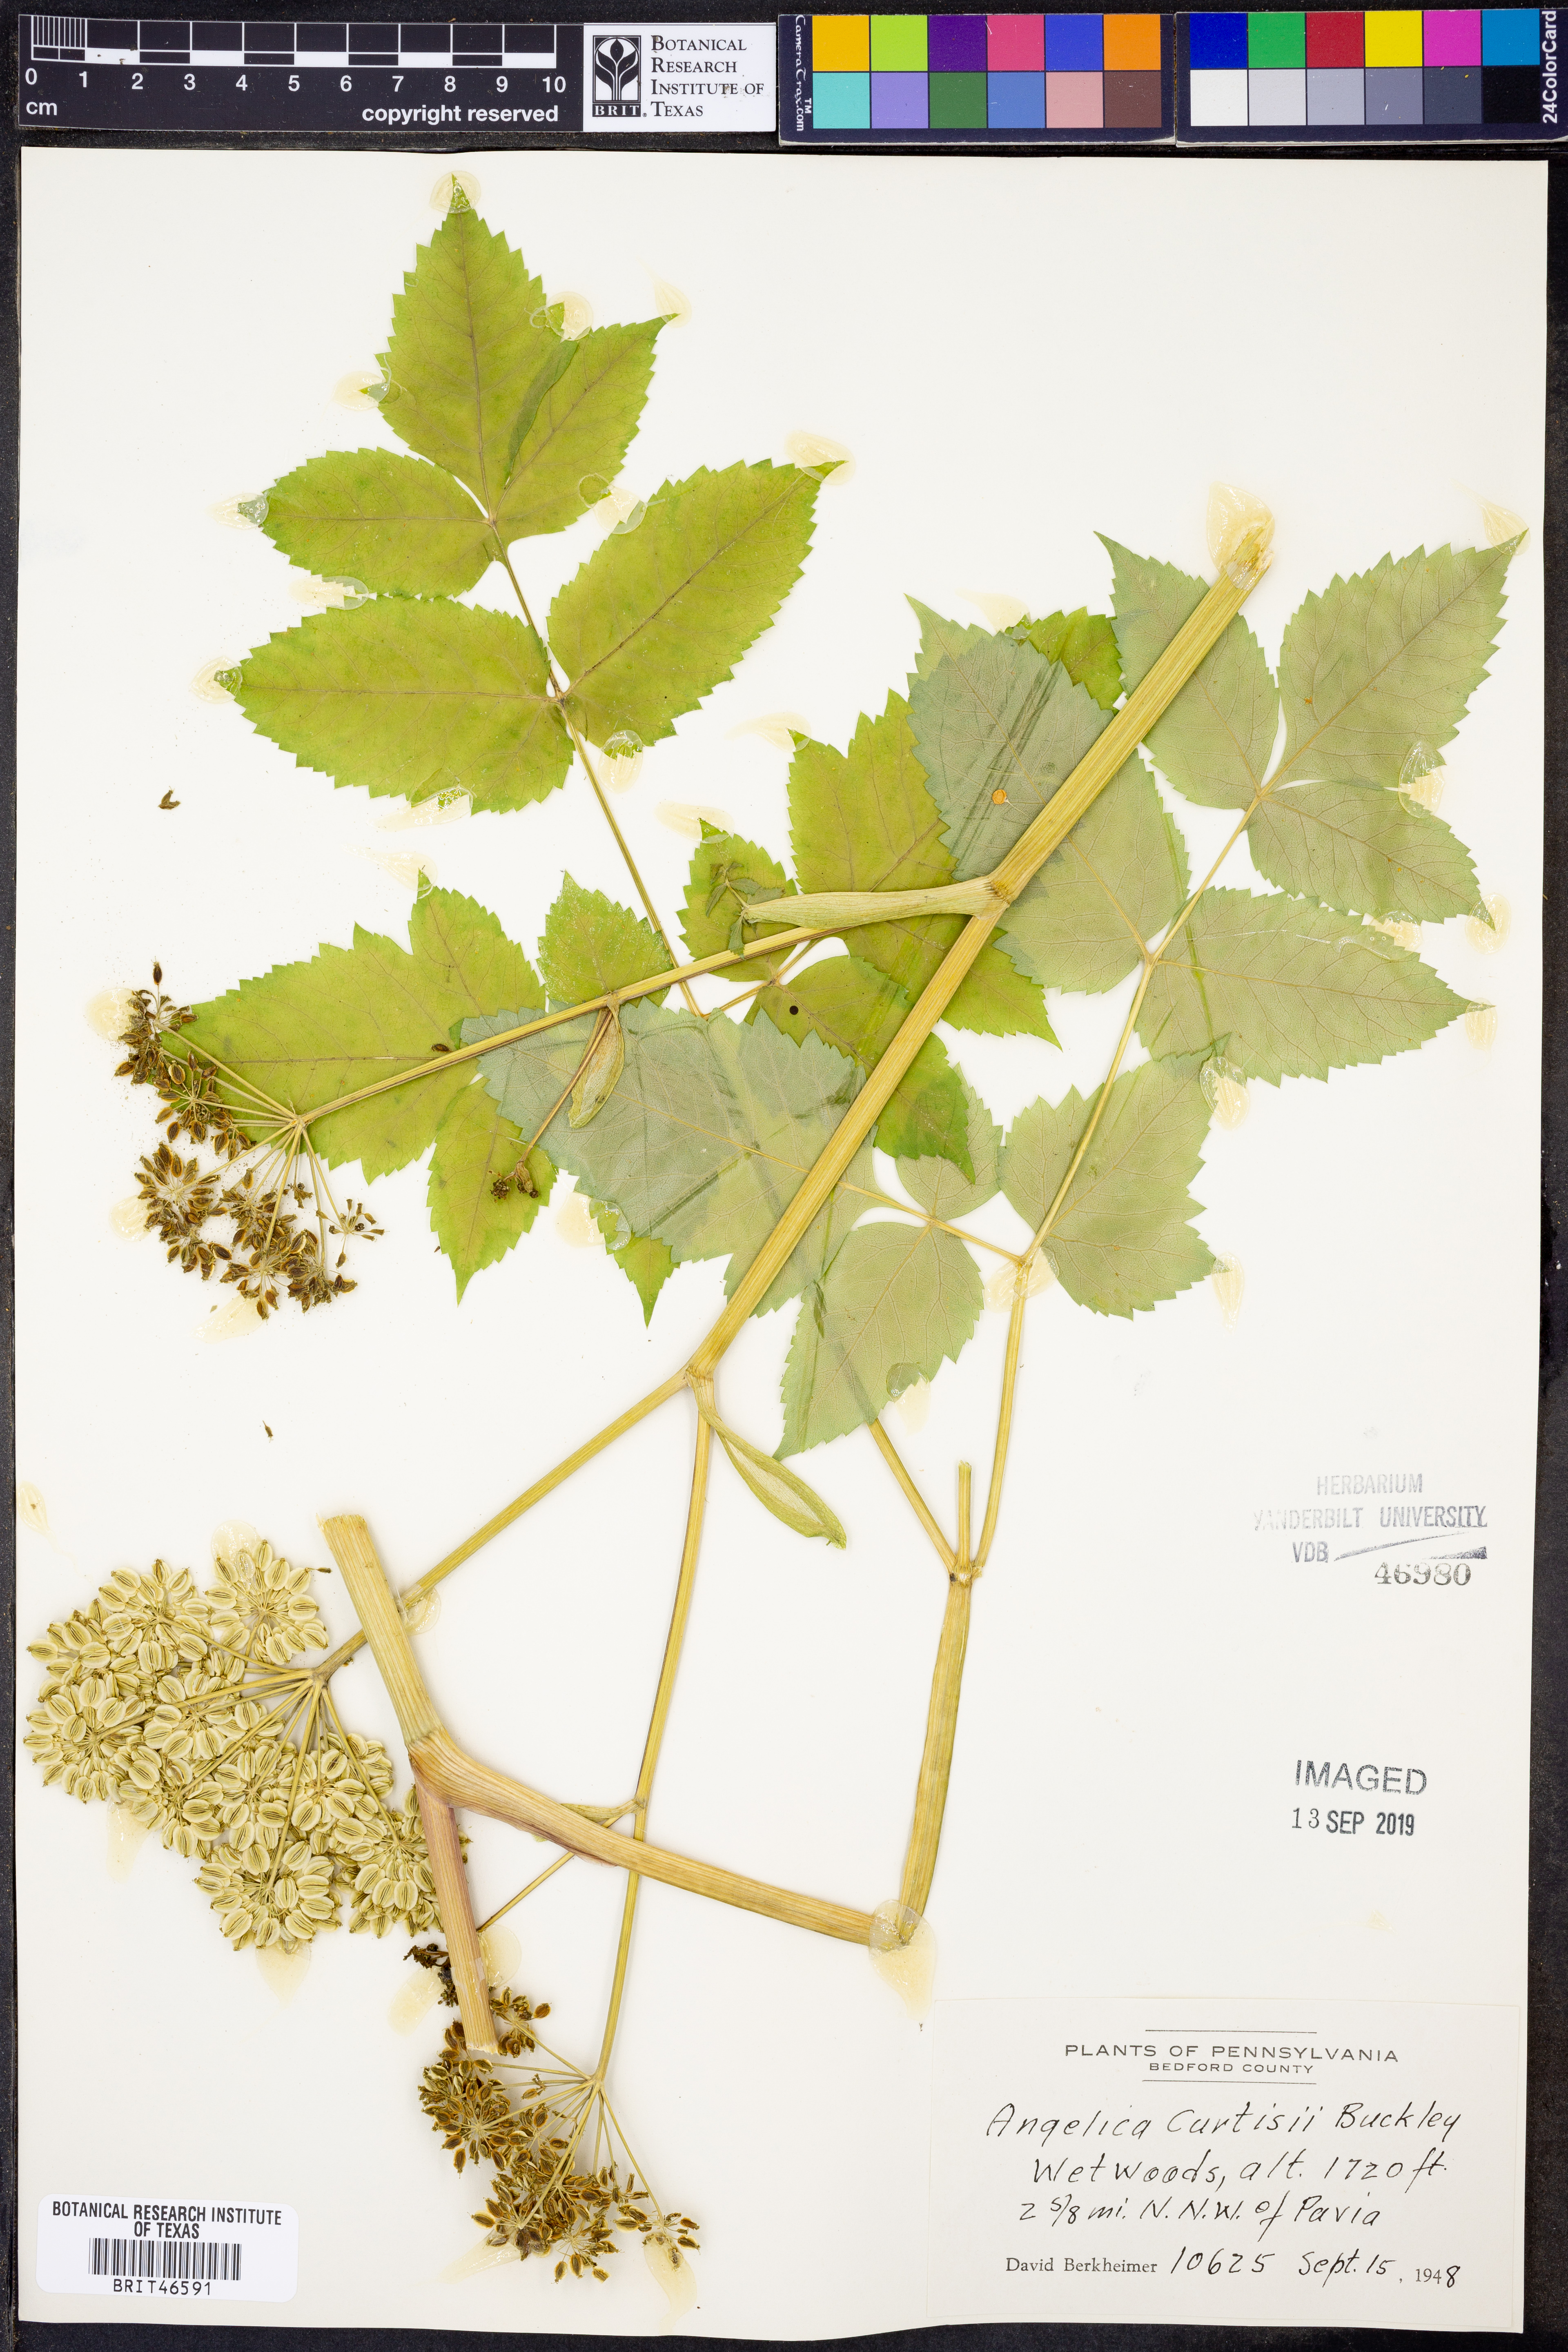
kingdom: Plantae
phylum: Tracheophyta
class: Magnoliopsida
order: Apiales
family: Apiaceae
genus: Angelica
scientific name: Angelica triquinata
